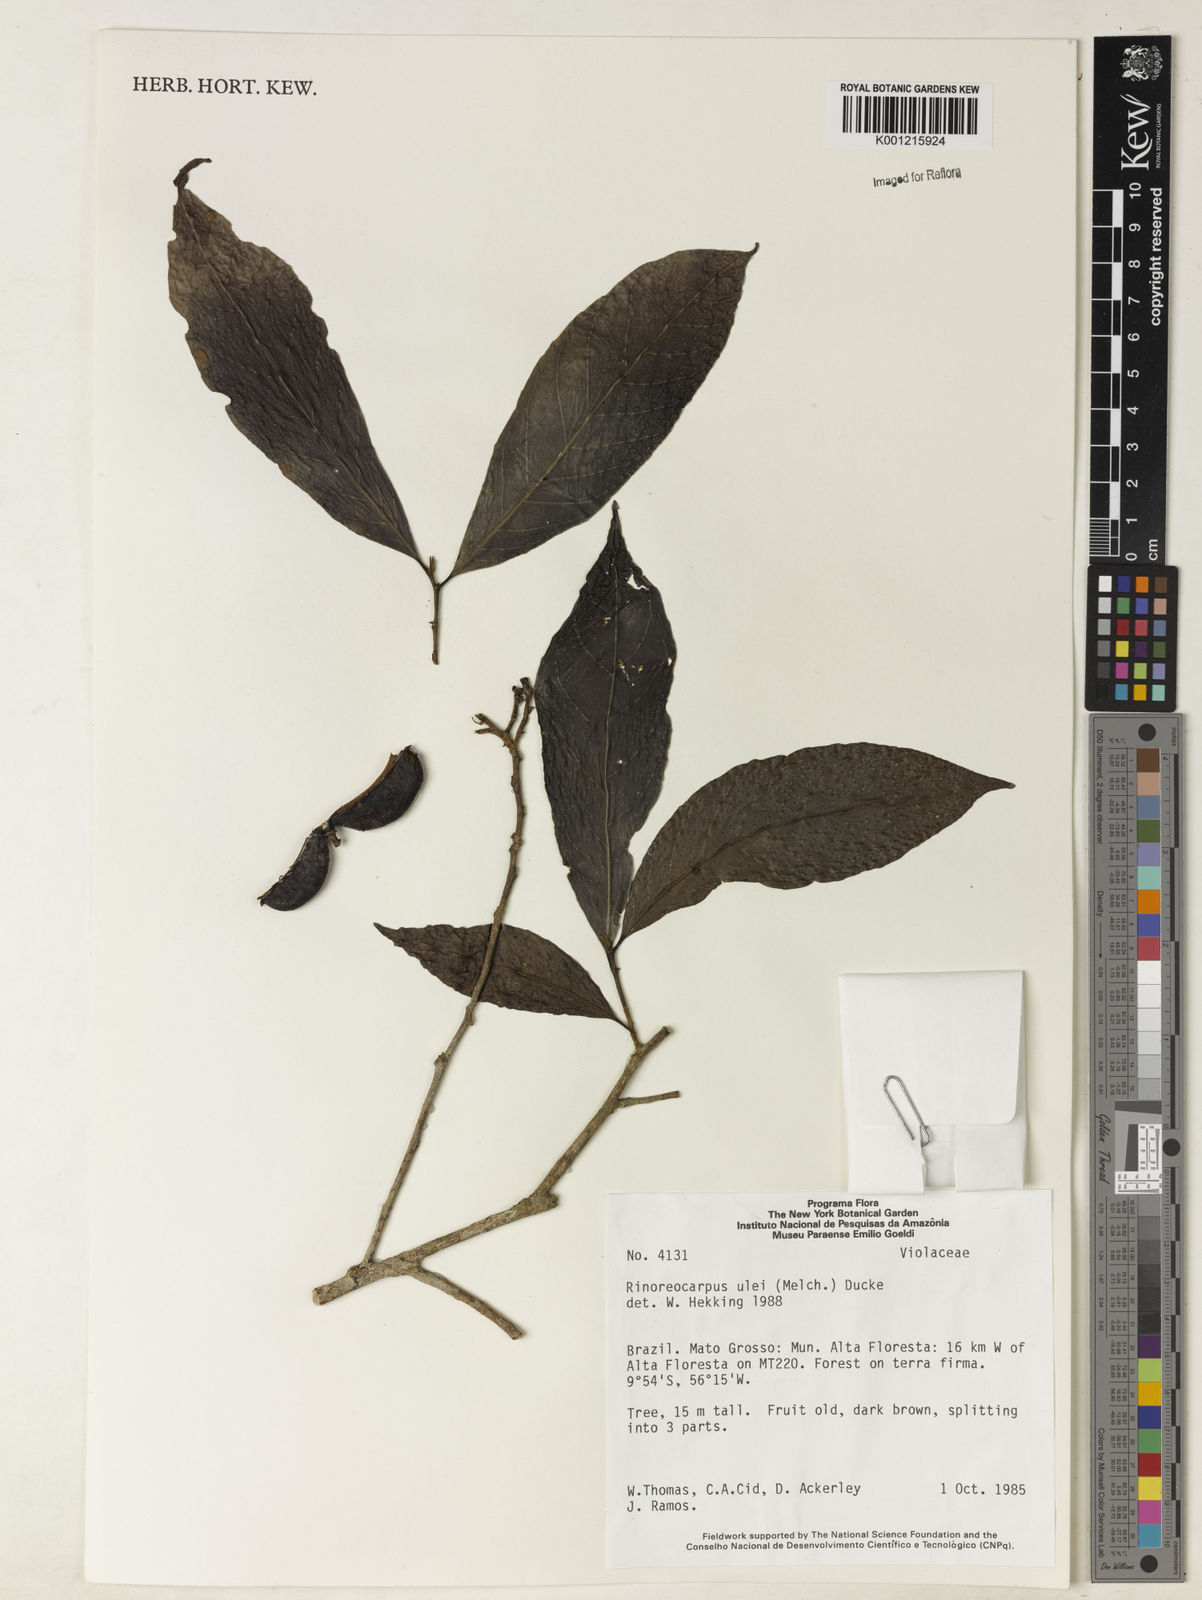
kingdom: Plantae
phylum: Tracheophyta
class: Magnoliopsida
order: Malpighiales
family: Violaceae
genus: Rinorea
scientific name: Rinorea
